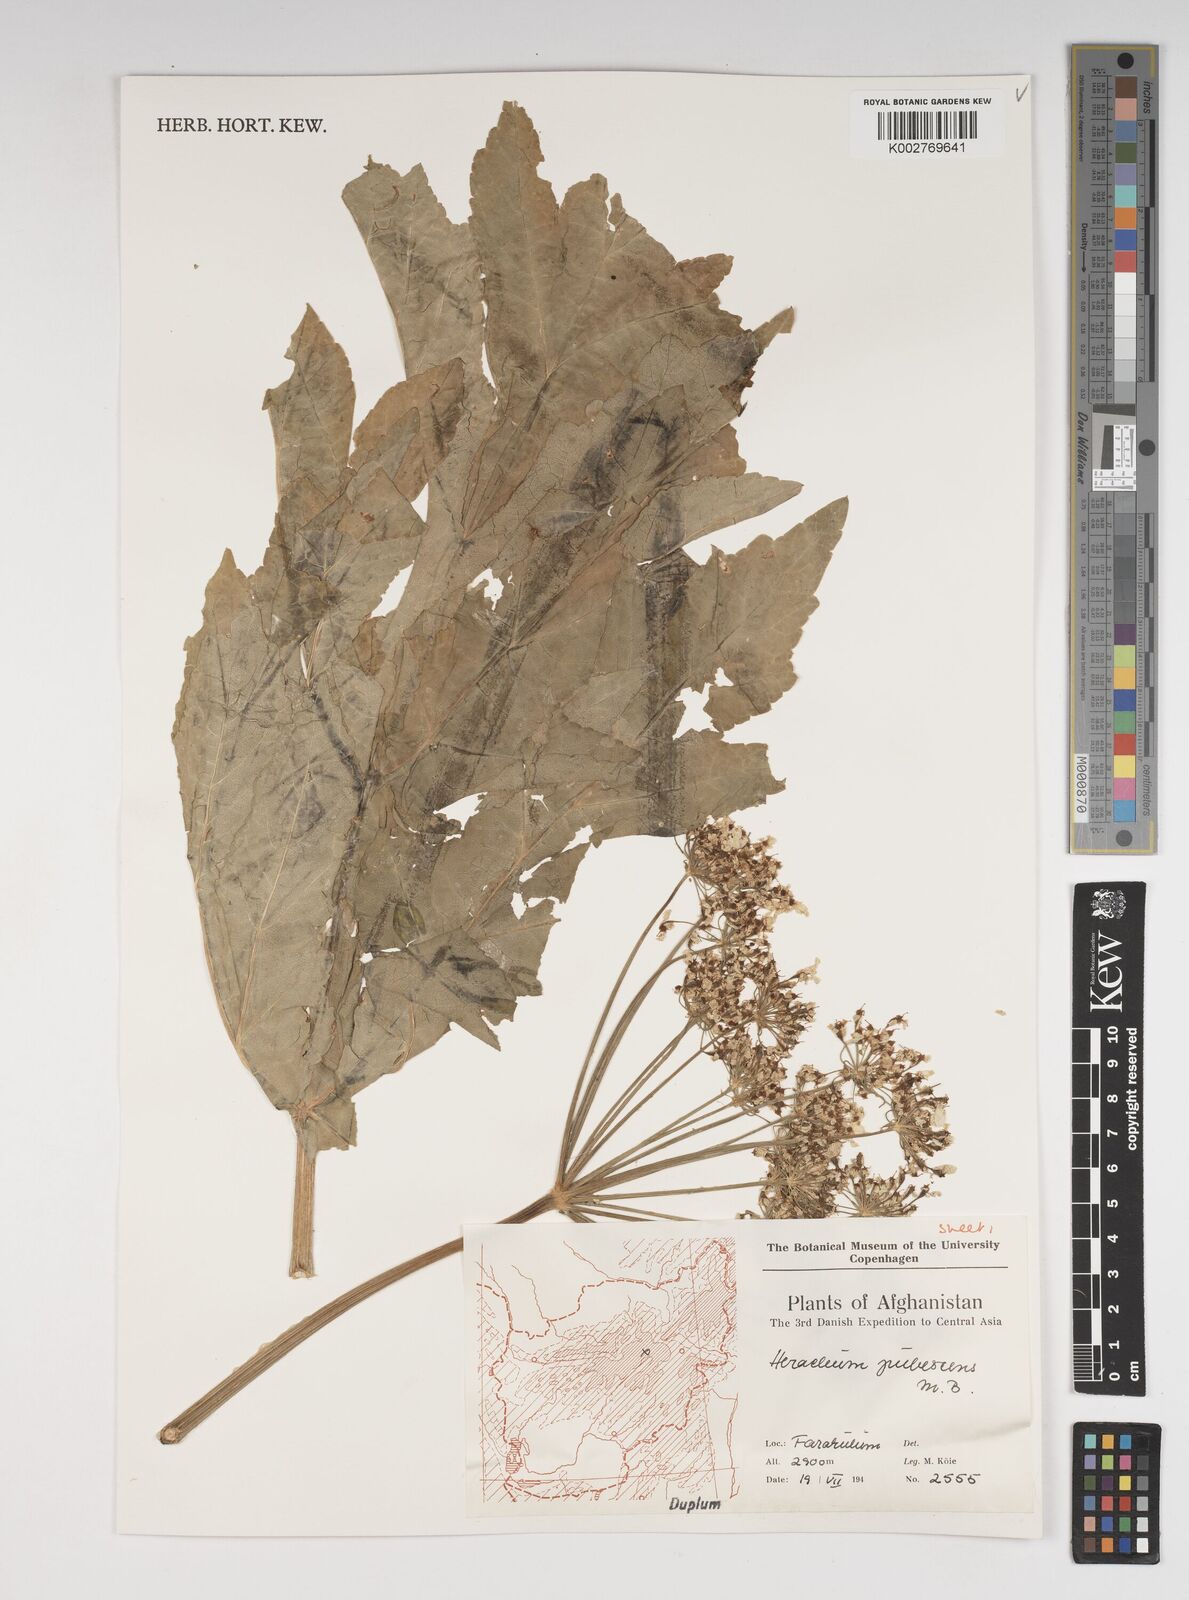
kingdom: Plantae
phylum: Tracheophyta
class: Magnoliopsida
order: Apiales
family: Apiaceae
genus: Heracleum
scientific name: Heracleum
